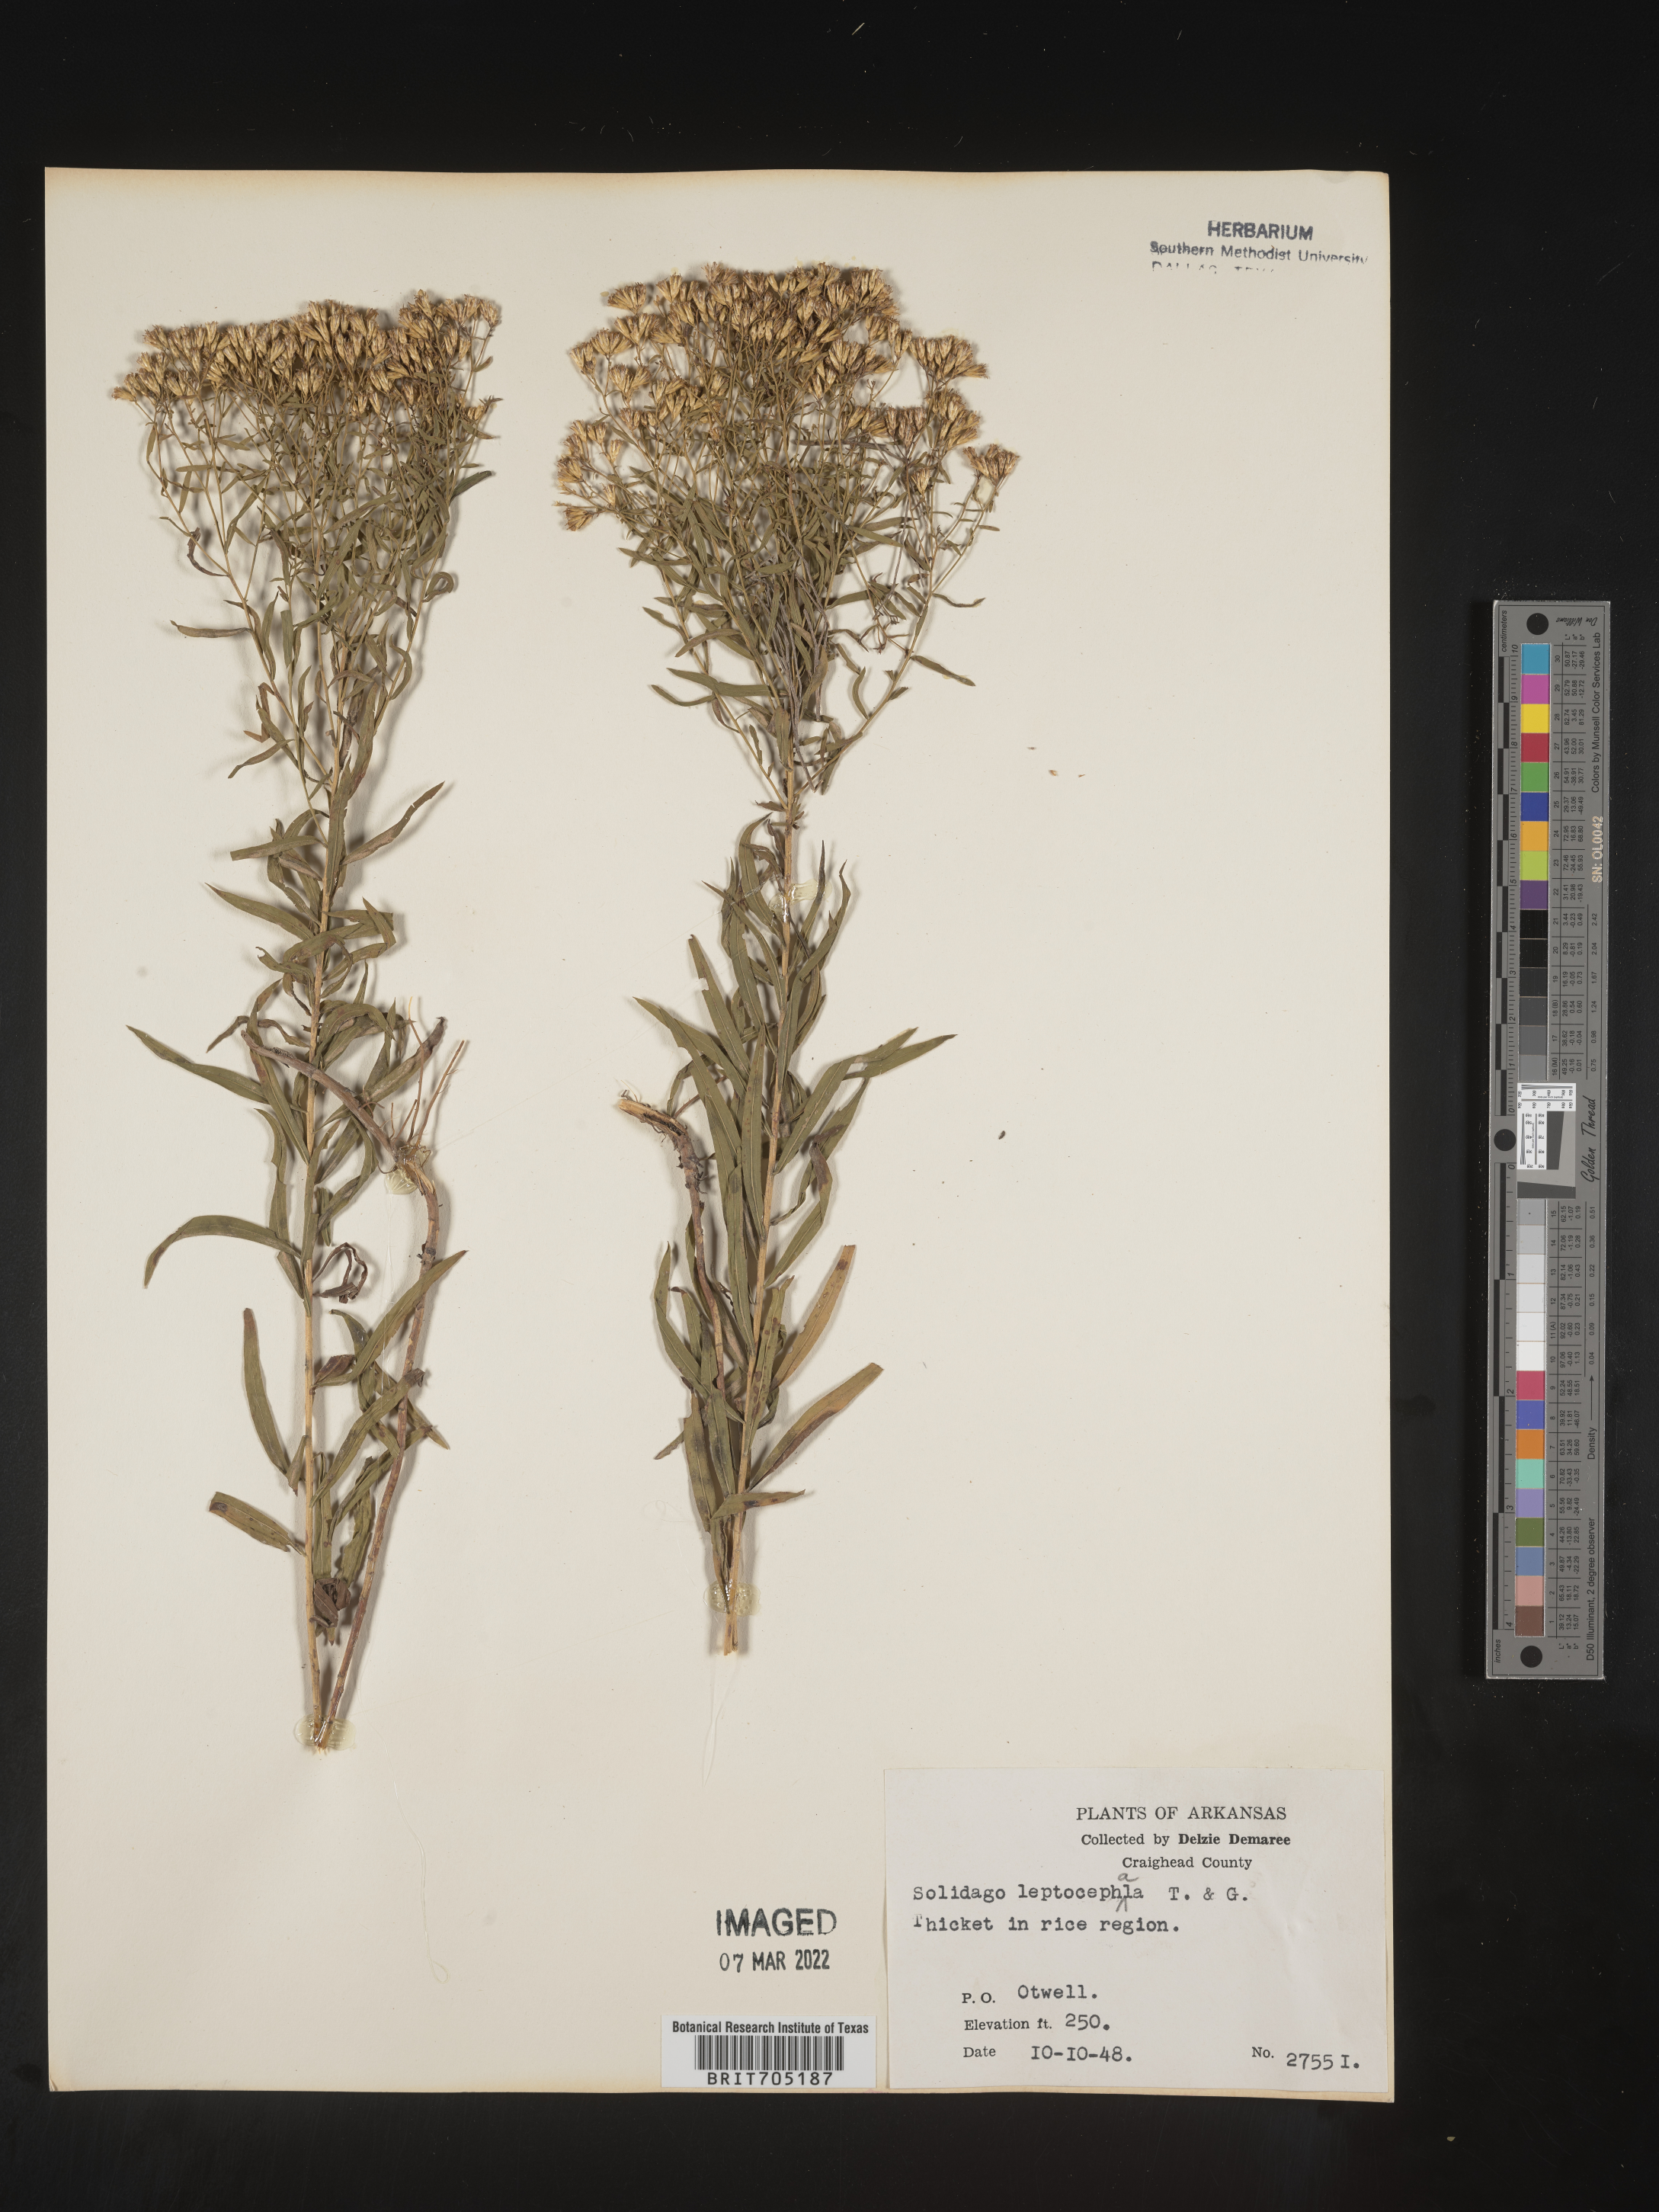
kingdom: Plantae
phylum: Tracheophyta
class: Magnoliopsida
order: Asterales
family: Asteraceae
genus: Euthamia
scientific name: Euthamia leptocephala
